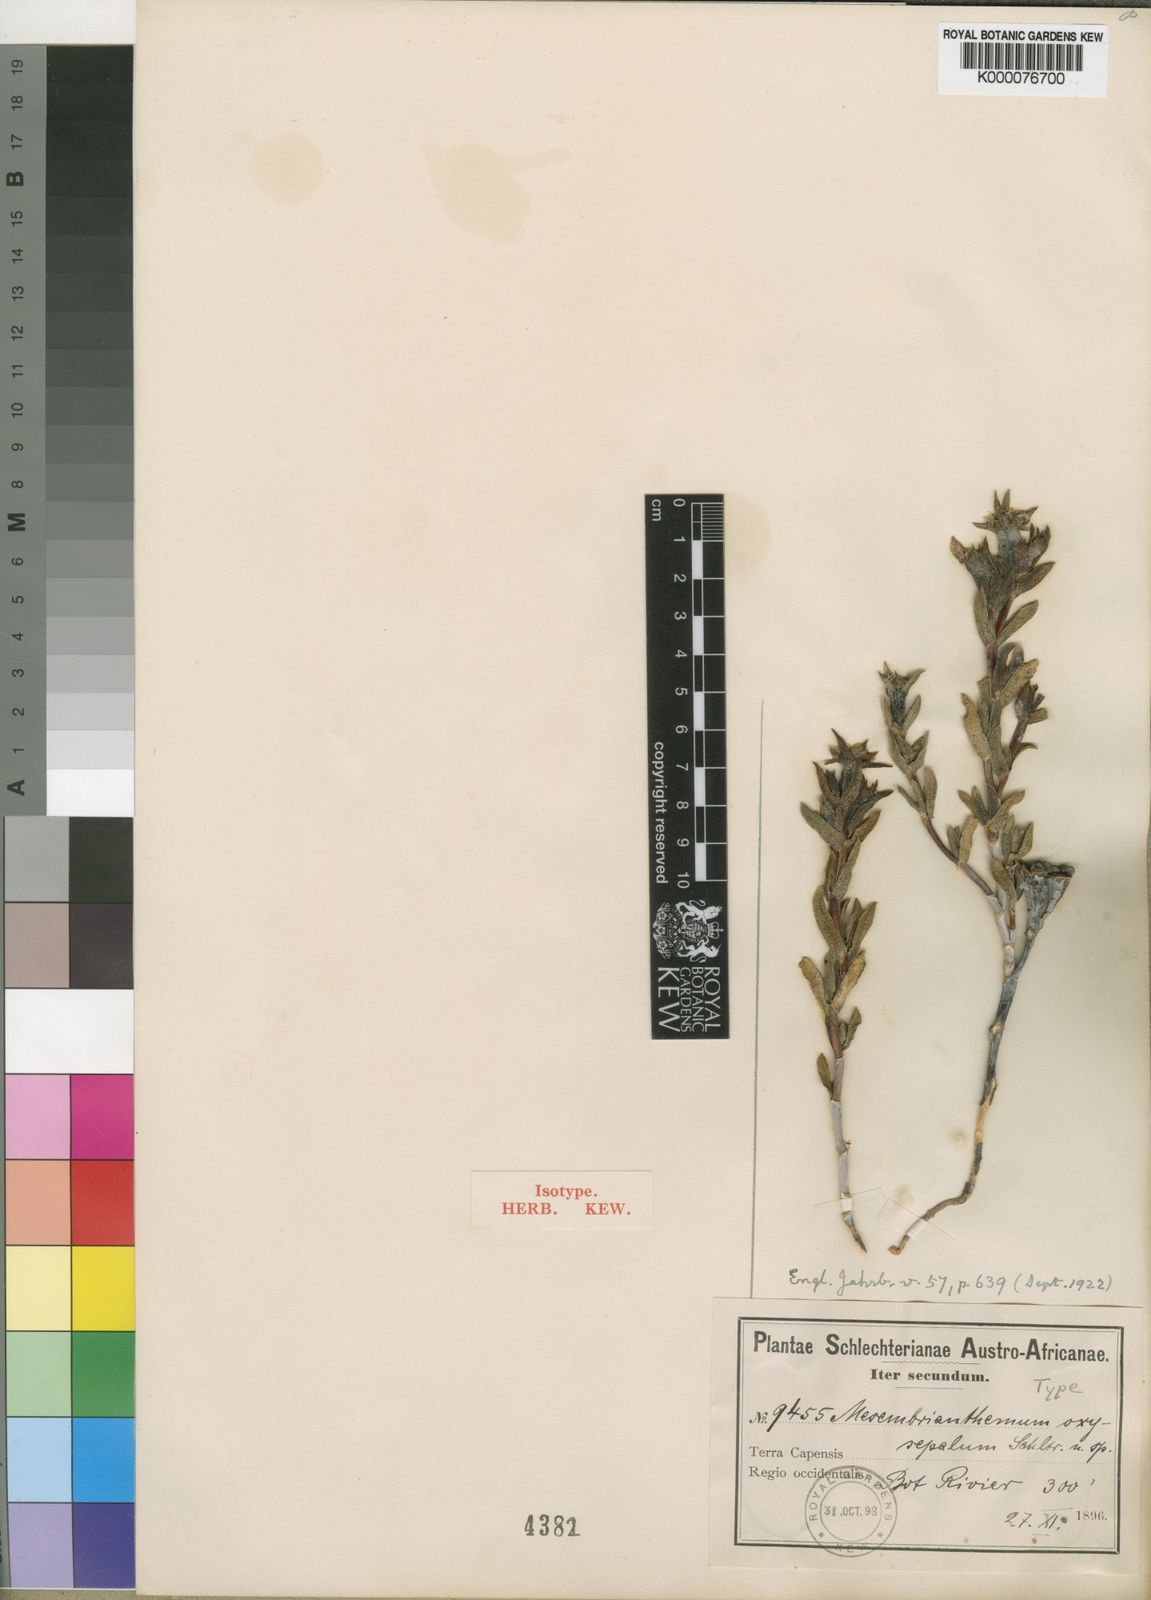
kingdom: Plantae
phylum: Tracheophyta
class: Magnoliopsida
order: Caryophyllales
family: Aizoaceae
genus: Erepsia
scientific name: Erepsia oxysepala
